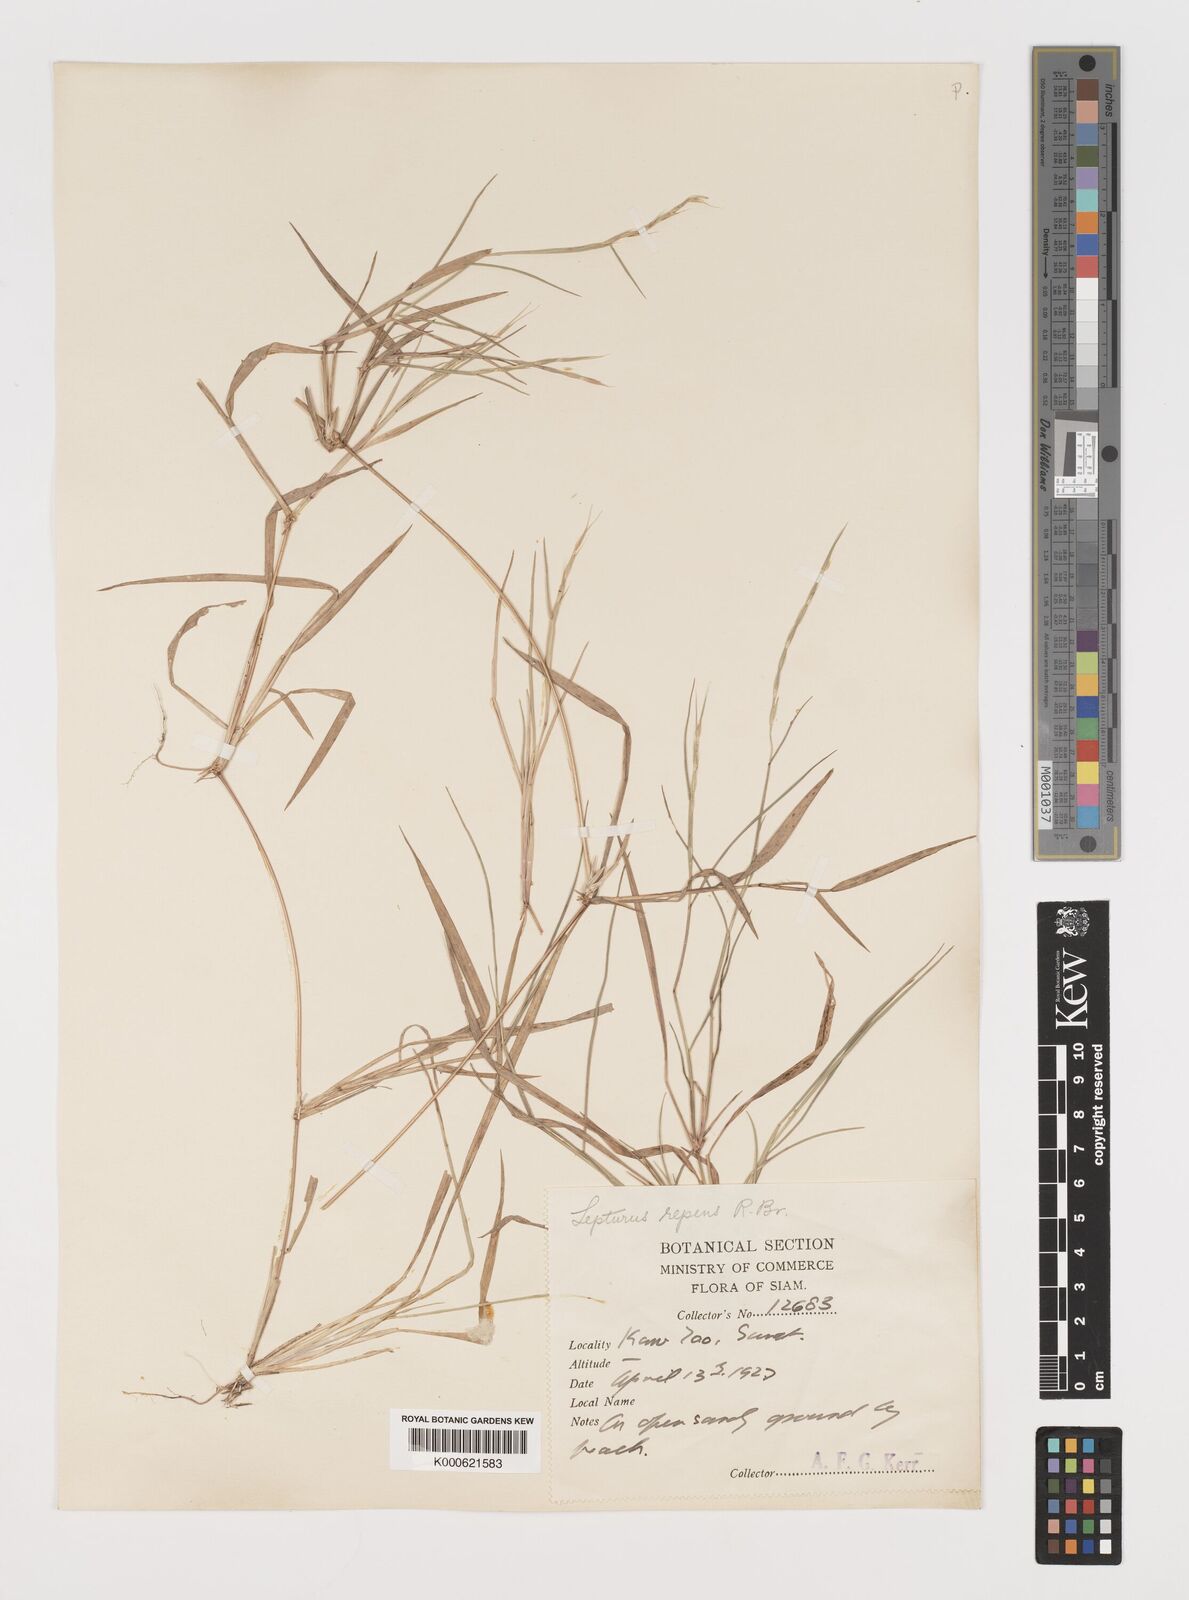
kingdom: Plantae
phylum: Tracheophyta
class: Liliopsida
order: Poales
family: Poaceae
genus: Lepturus
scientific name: Lepturus repens
